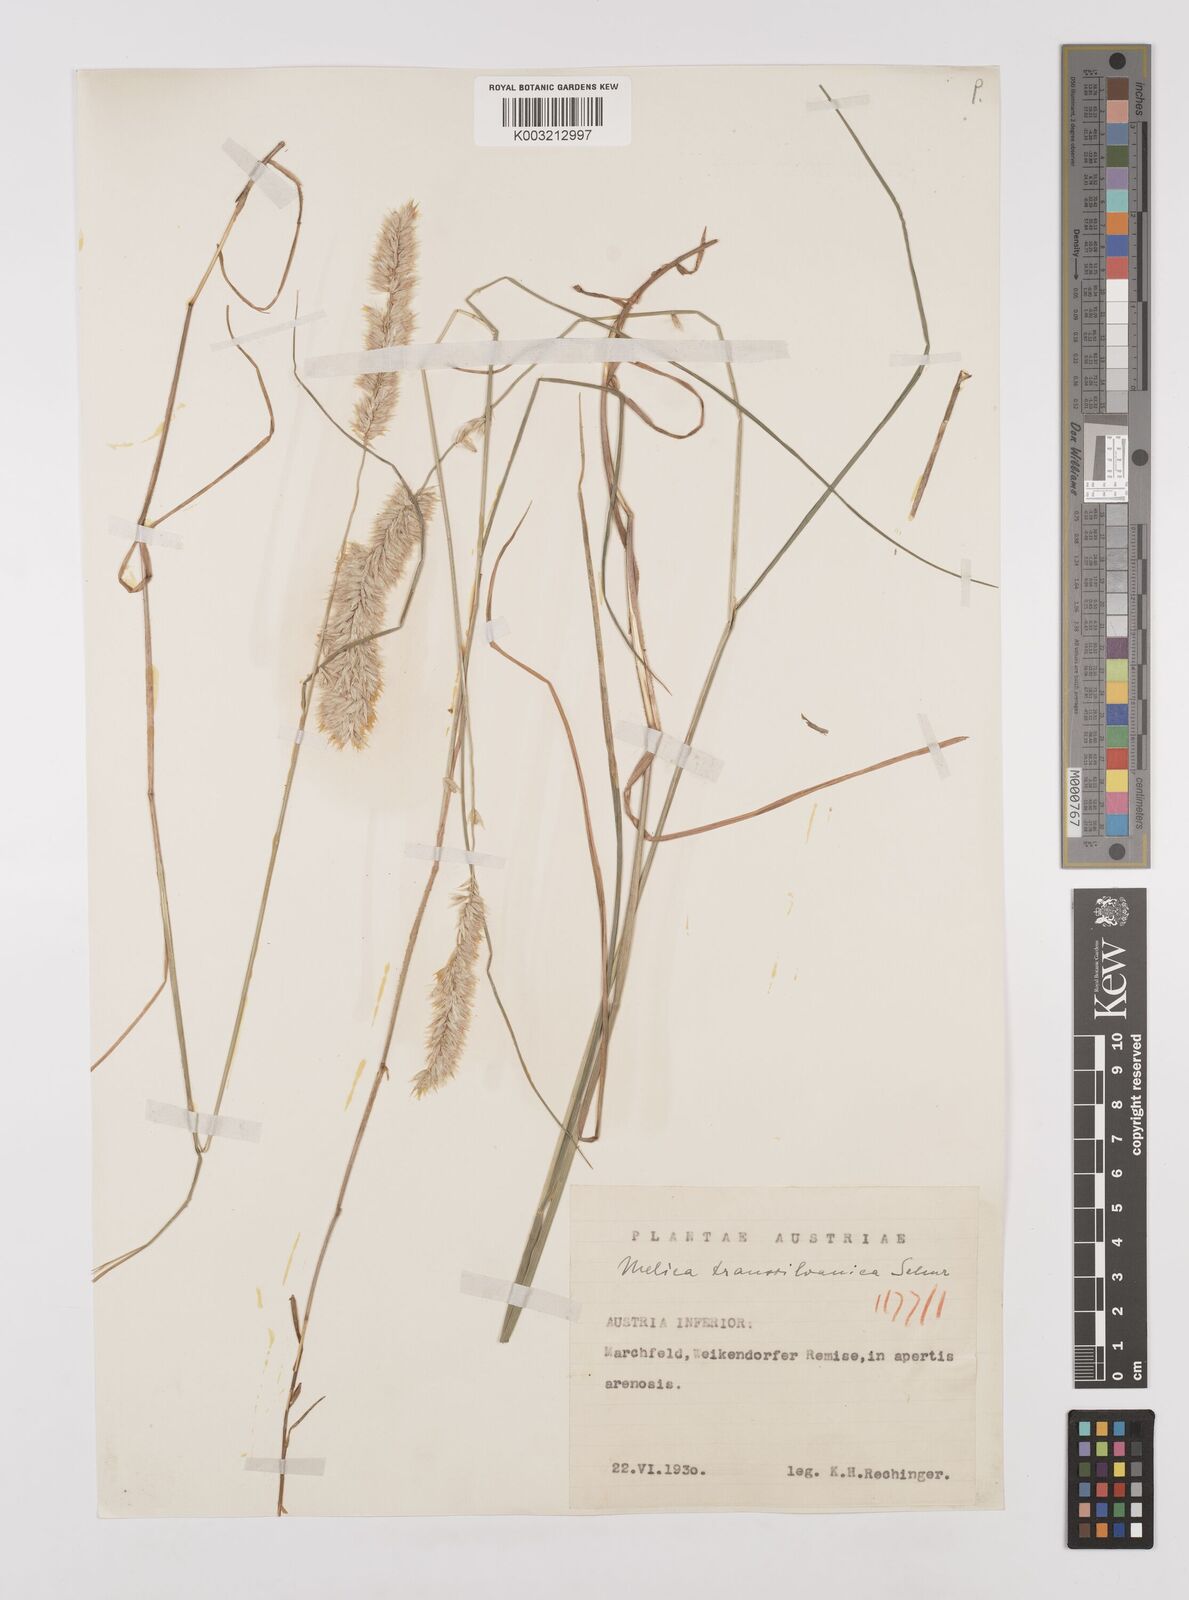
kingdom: Plantae
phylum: Tracheophyta
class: Liliopsida
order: Poales
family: Poaceae
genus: Melica
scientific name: Melica transsilvanica
